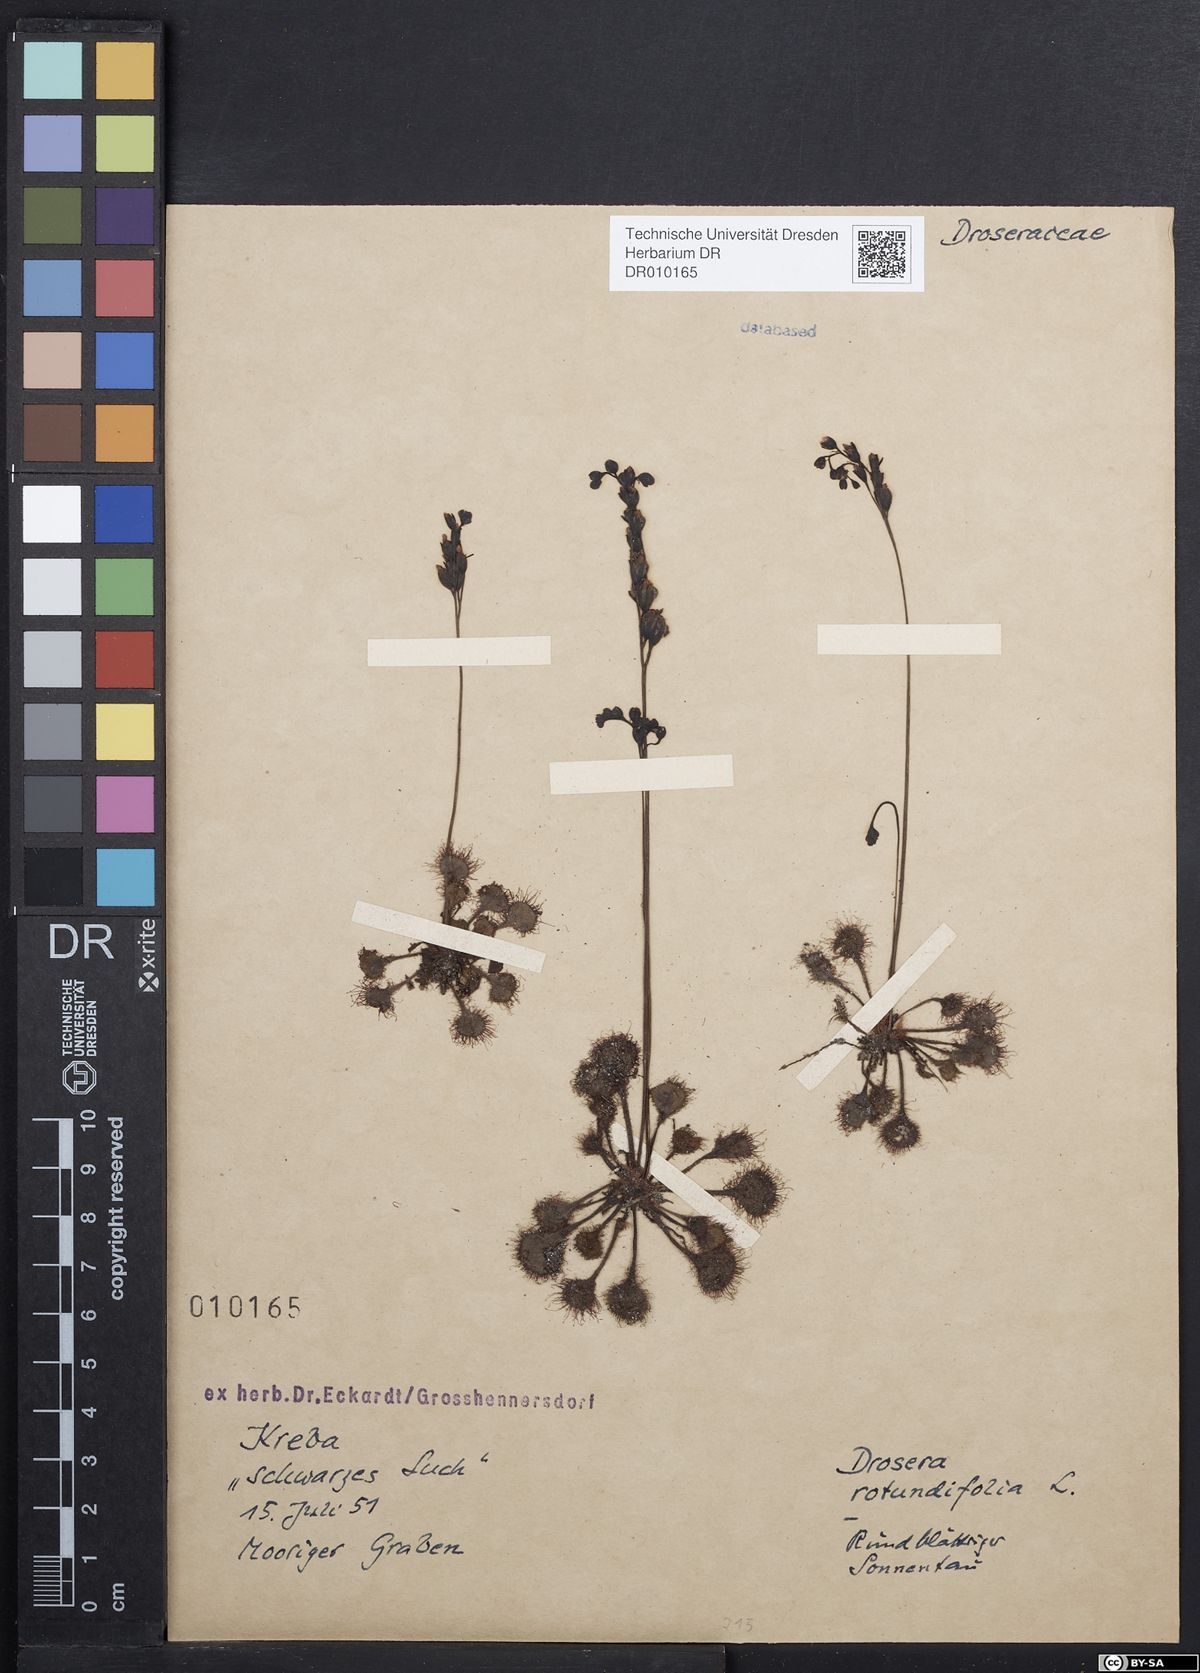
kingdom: Plantae
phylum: Tracheophyta
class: Magnoliopsida
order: Caryophyllales
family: Droseraceae
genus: Drosera
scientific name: Drosera rotundifolia
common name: Round-leaved sundew
